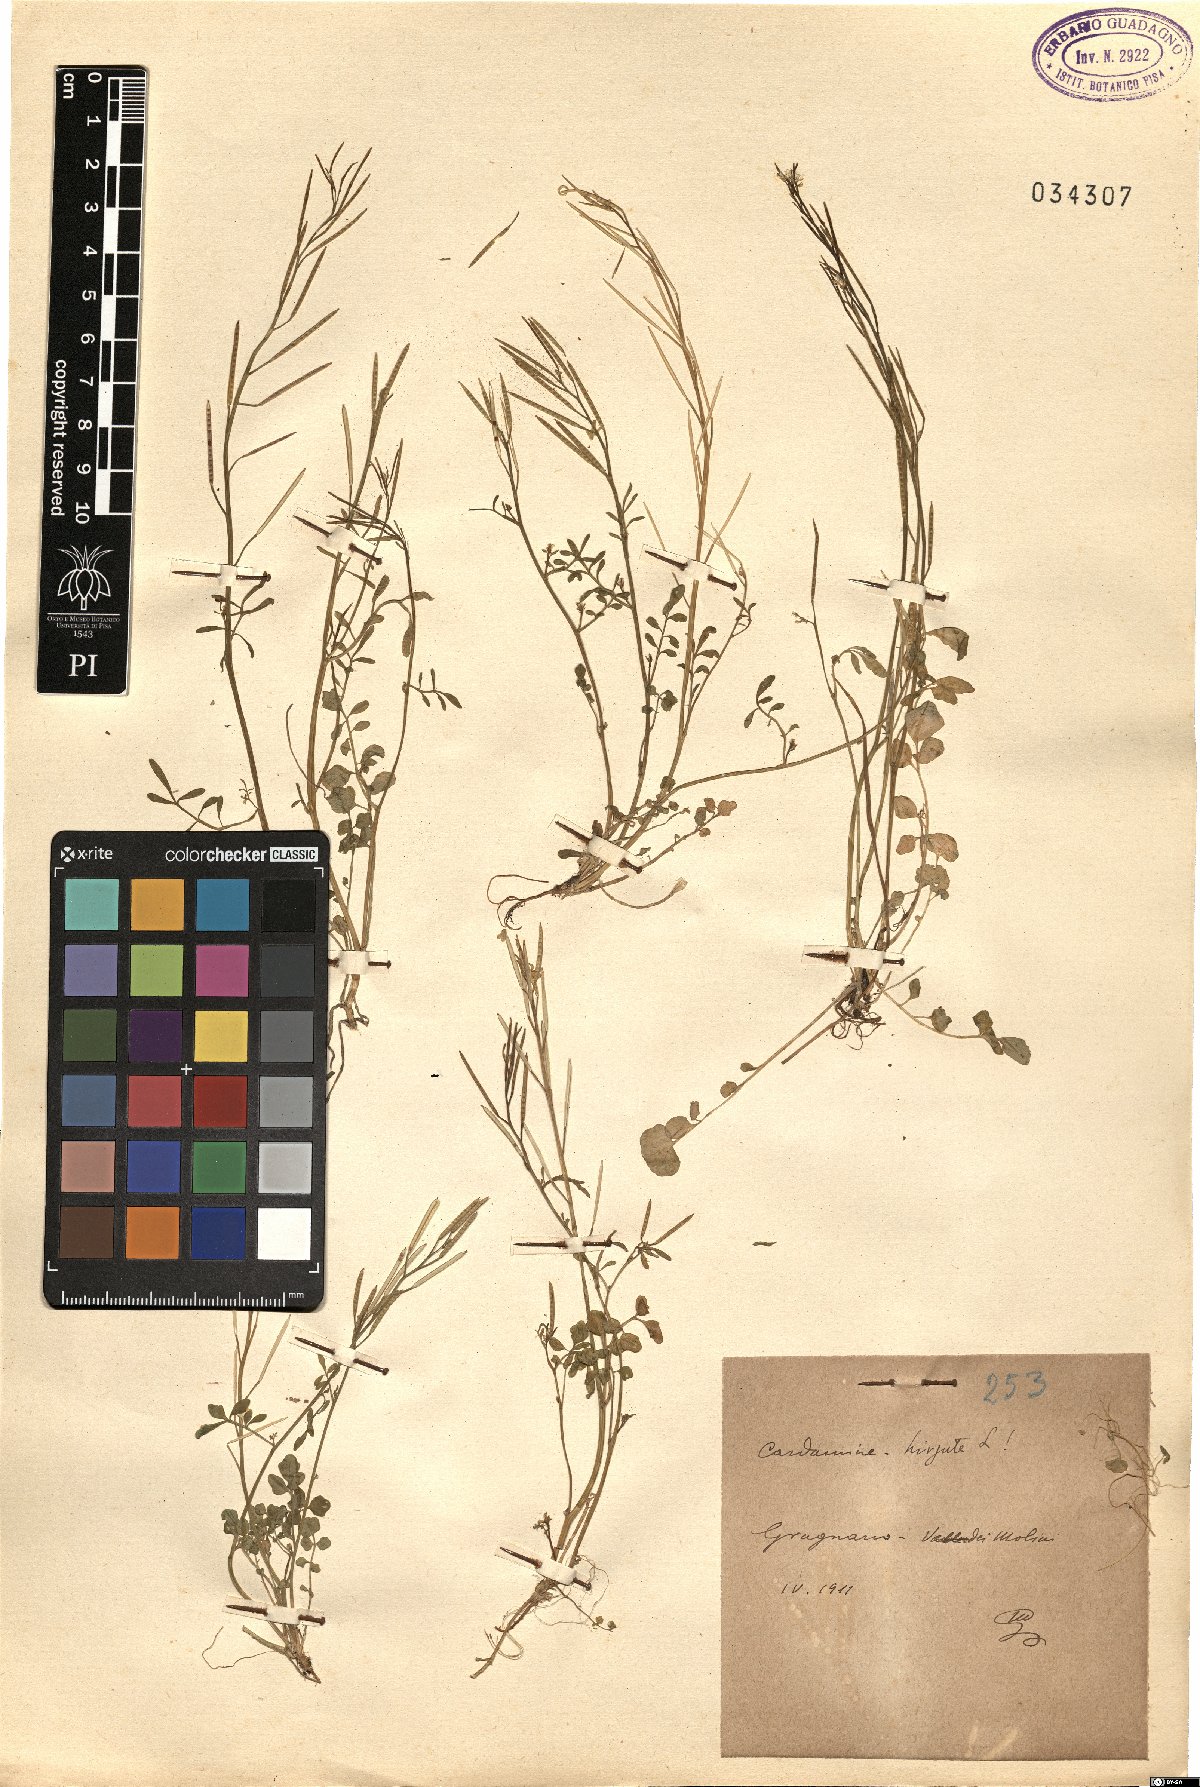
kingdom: Plantae
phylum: Tracheophyta
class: Magnoliopsida
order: Brassicales
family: Brassicaceae
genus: Cardamine
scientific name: Cardamine hirsuta
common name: Hairy bittercress
